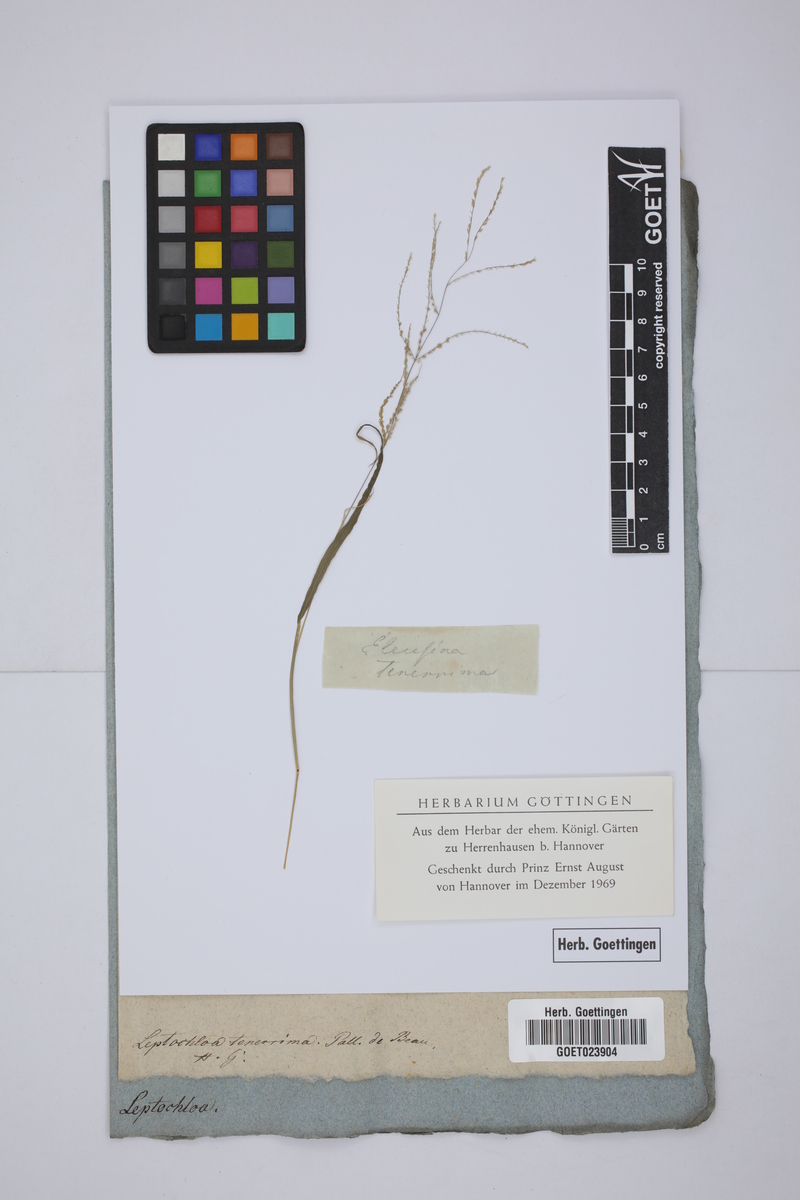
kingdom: Plantae
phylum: Tracheophyta
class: Liliopsida
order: Poales
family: Poaceae
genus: Leptochloa
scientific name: Leptochloa panicea
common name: Mucronate sprangletop
